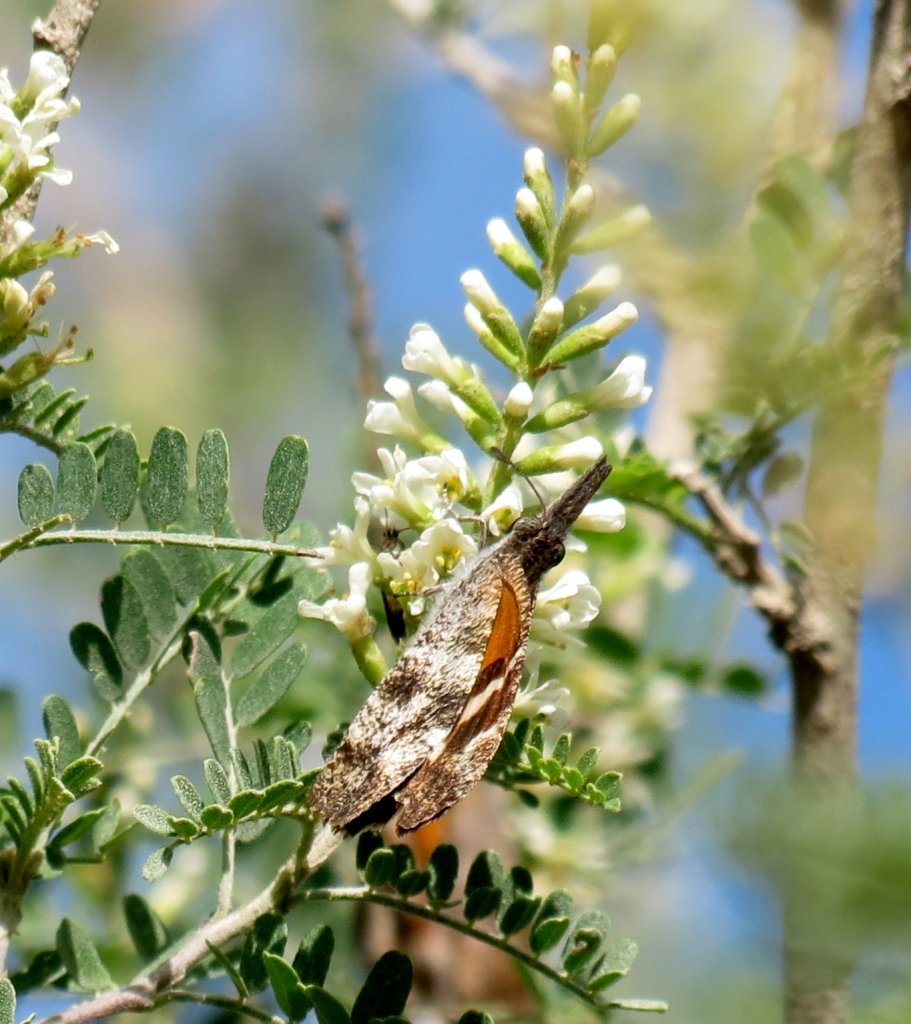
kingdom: Animalia
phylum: Arthropoda
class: Insecta
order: Lepidoptera
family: Nymphalidae
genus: Libytheana
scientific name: Libytheana carinenta
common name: American Snout
